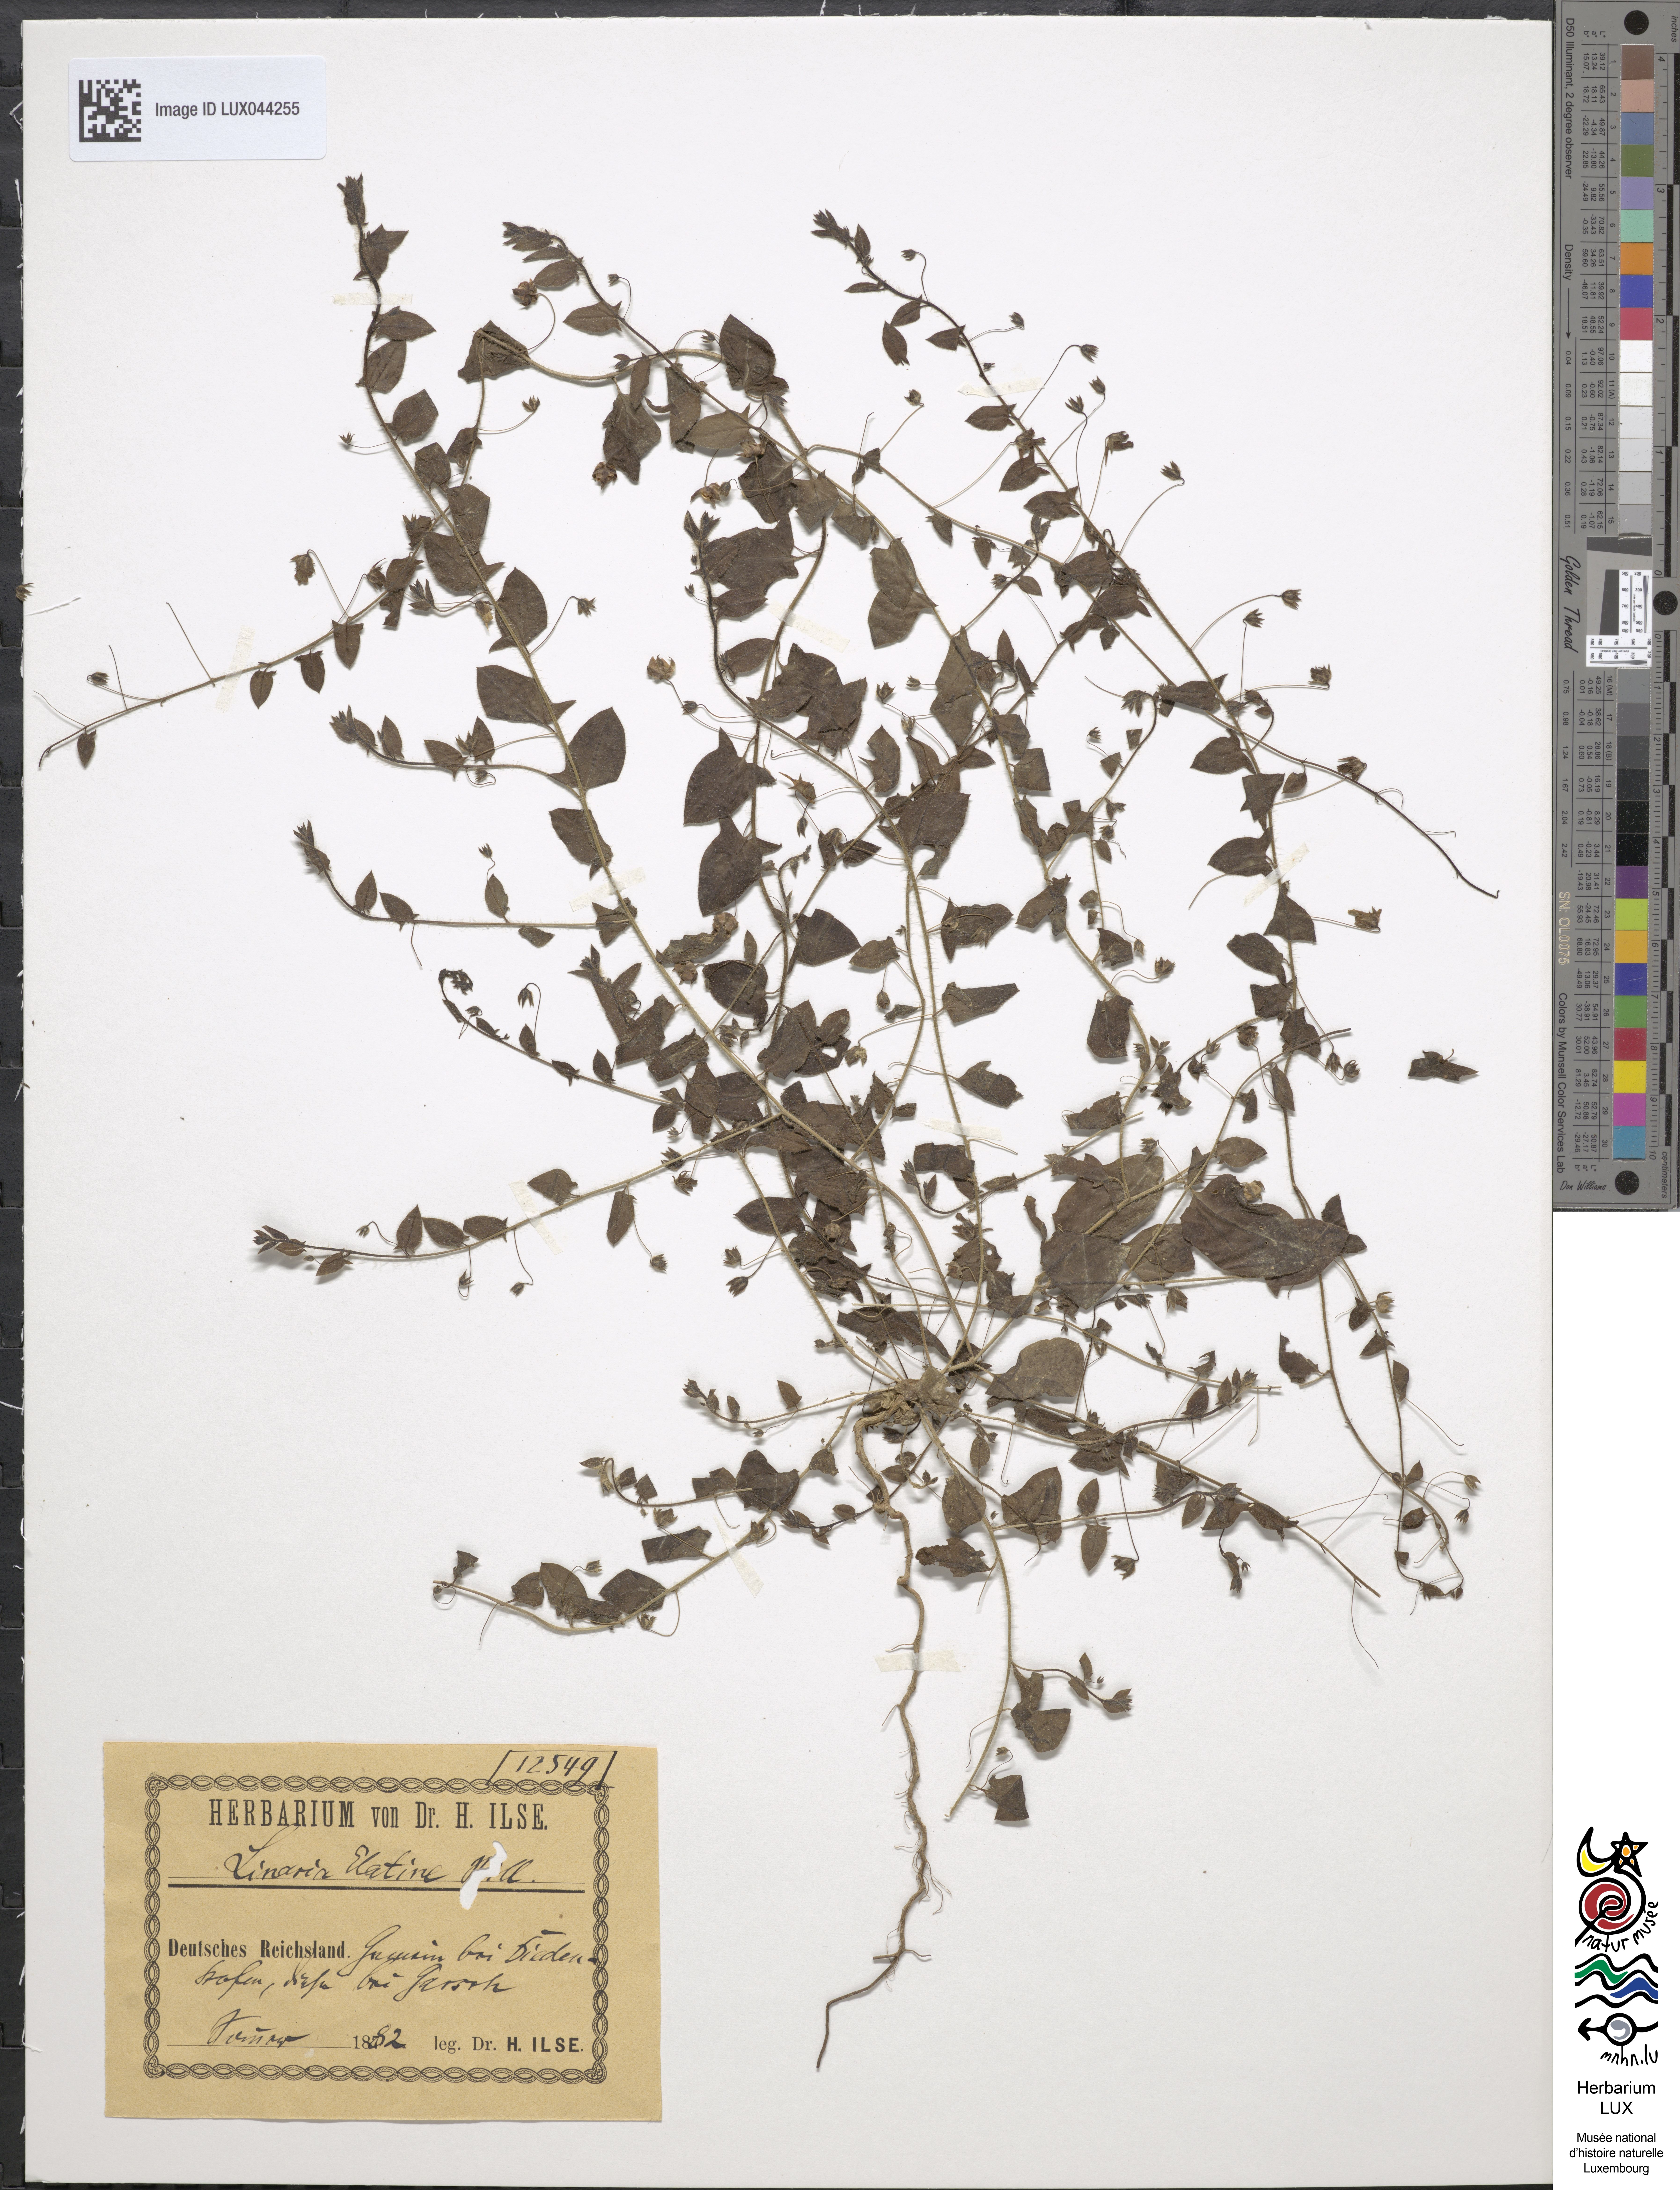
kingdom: Plantae
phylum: Tracheophyta
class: Magnoliopsida
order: Lamiales
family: Plantaginaceae
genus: Kickxia
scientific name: Kickxia elatine
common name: Sharp-leaved fluellen
